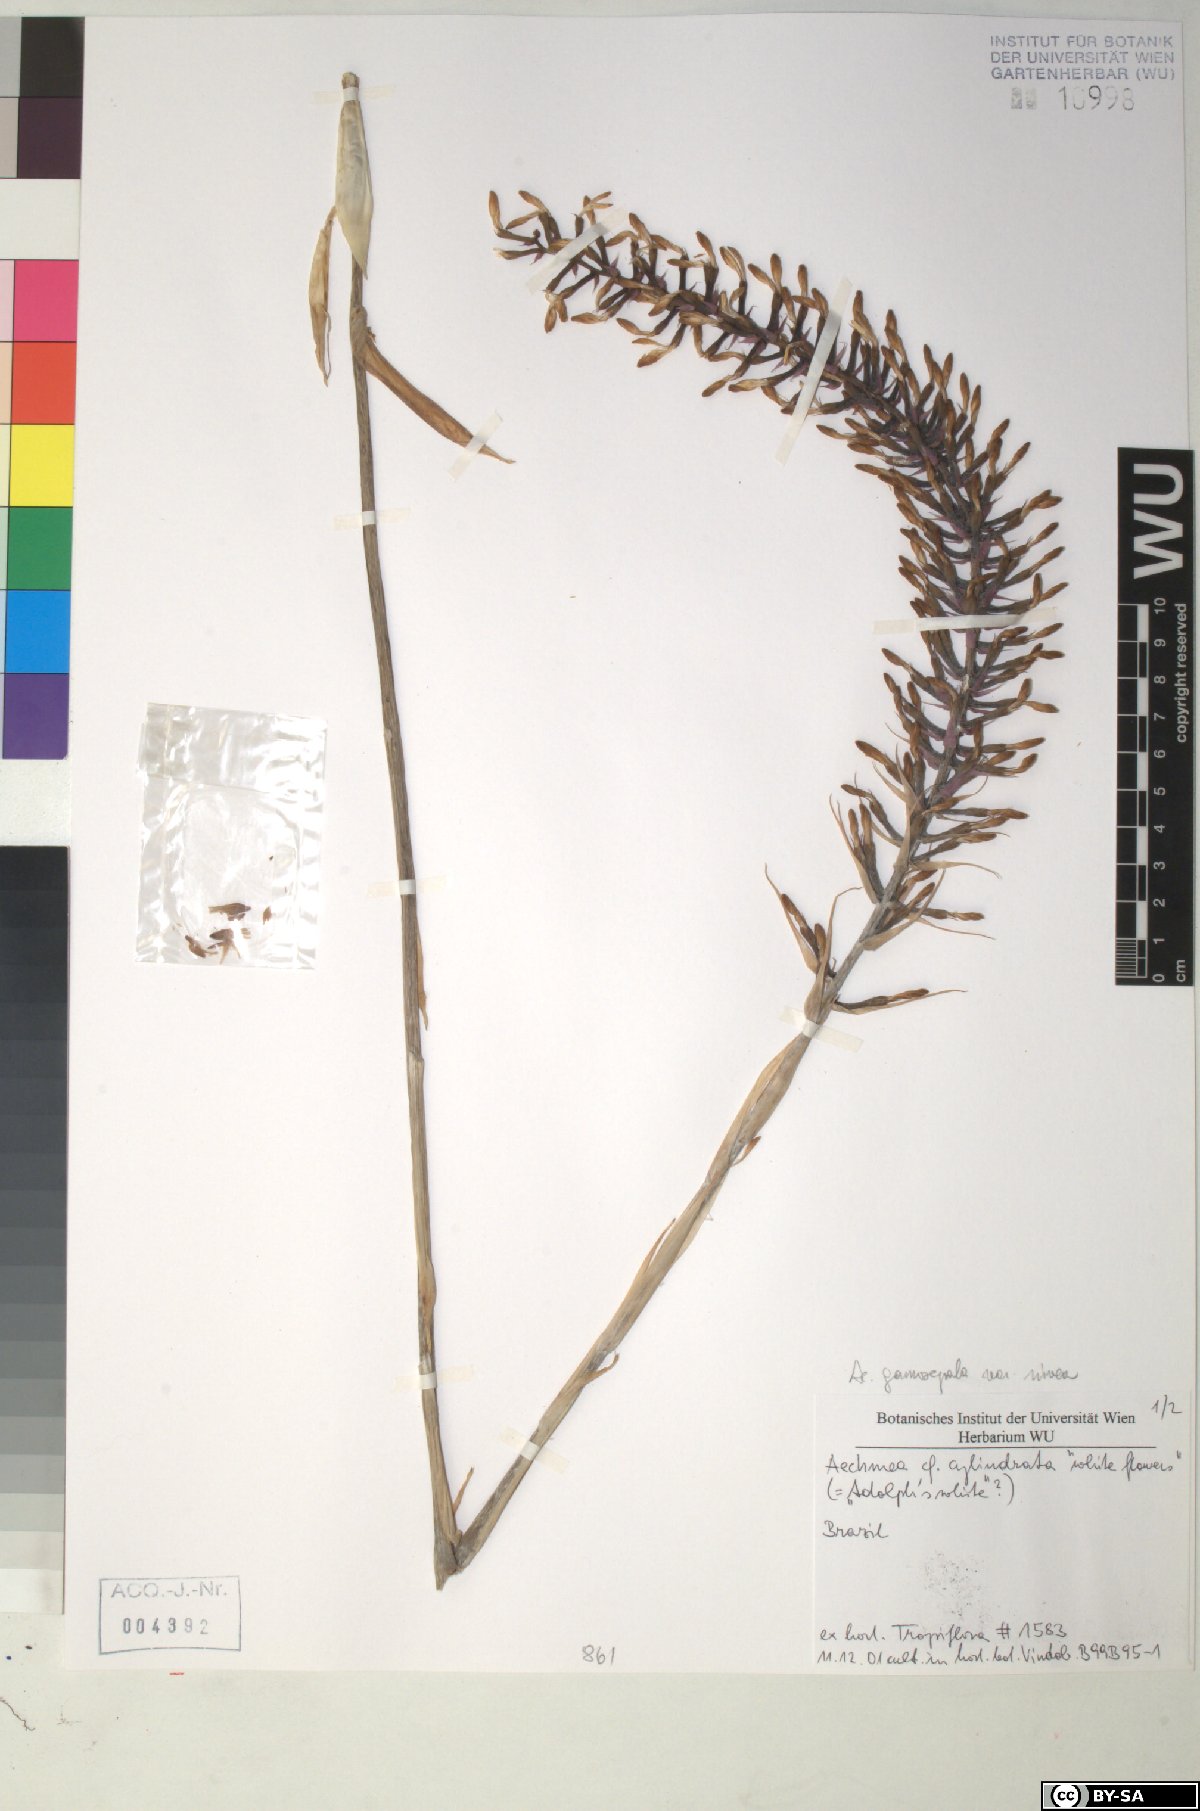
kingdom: Plantae
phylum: Tracheophyta
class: Liliopsida
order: Poales
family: Bromeliaceae
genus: Aechmea
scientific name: Aechmea cylindrata
